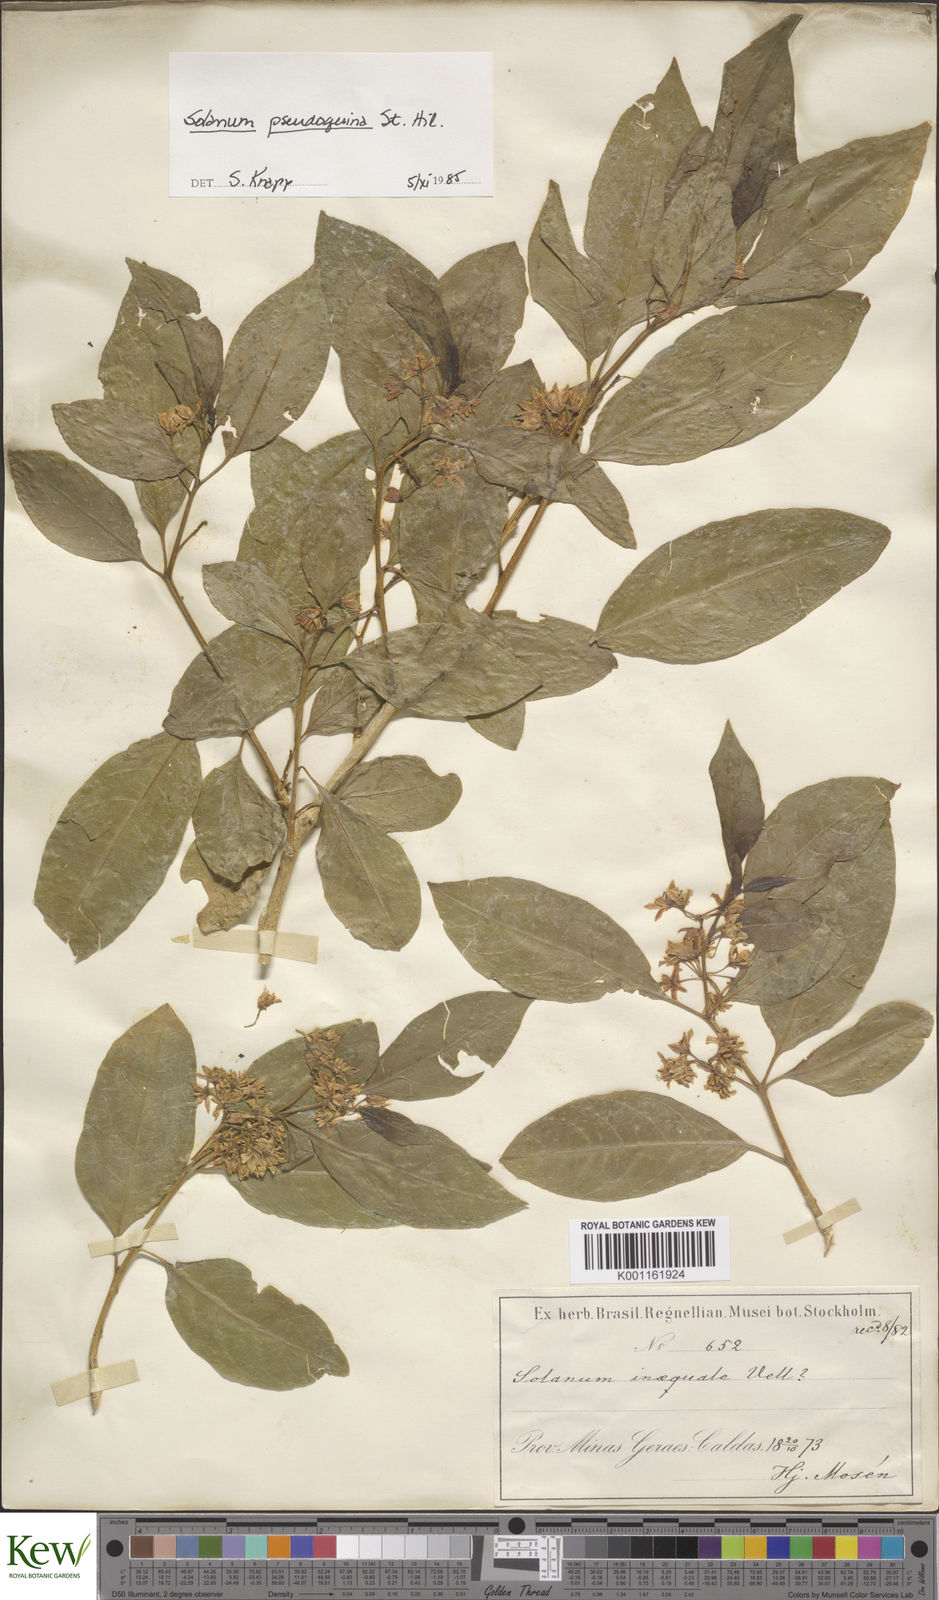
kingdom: Plantae
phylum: Tracheophyta
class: Magnoliopsida
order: Solanales
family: Solanaceae
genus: Solanum
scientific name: Solanum pseudoquina
